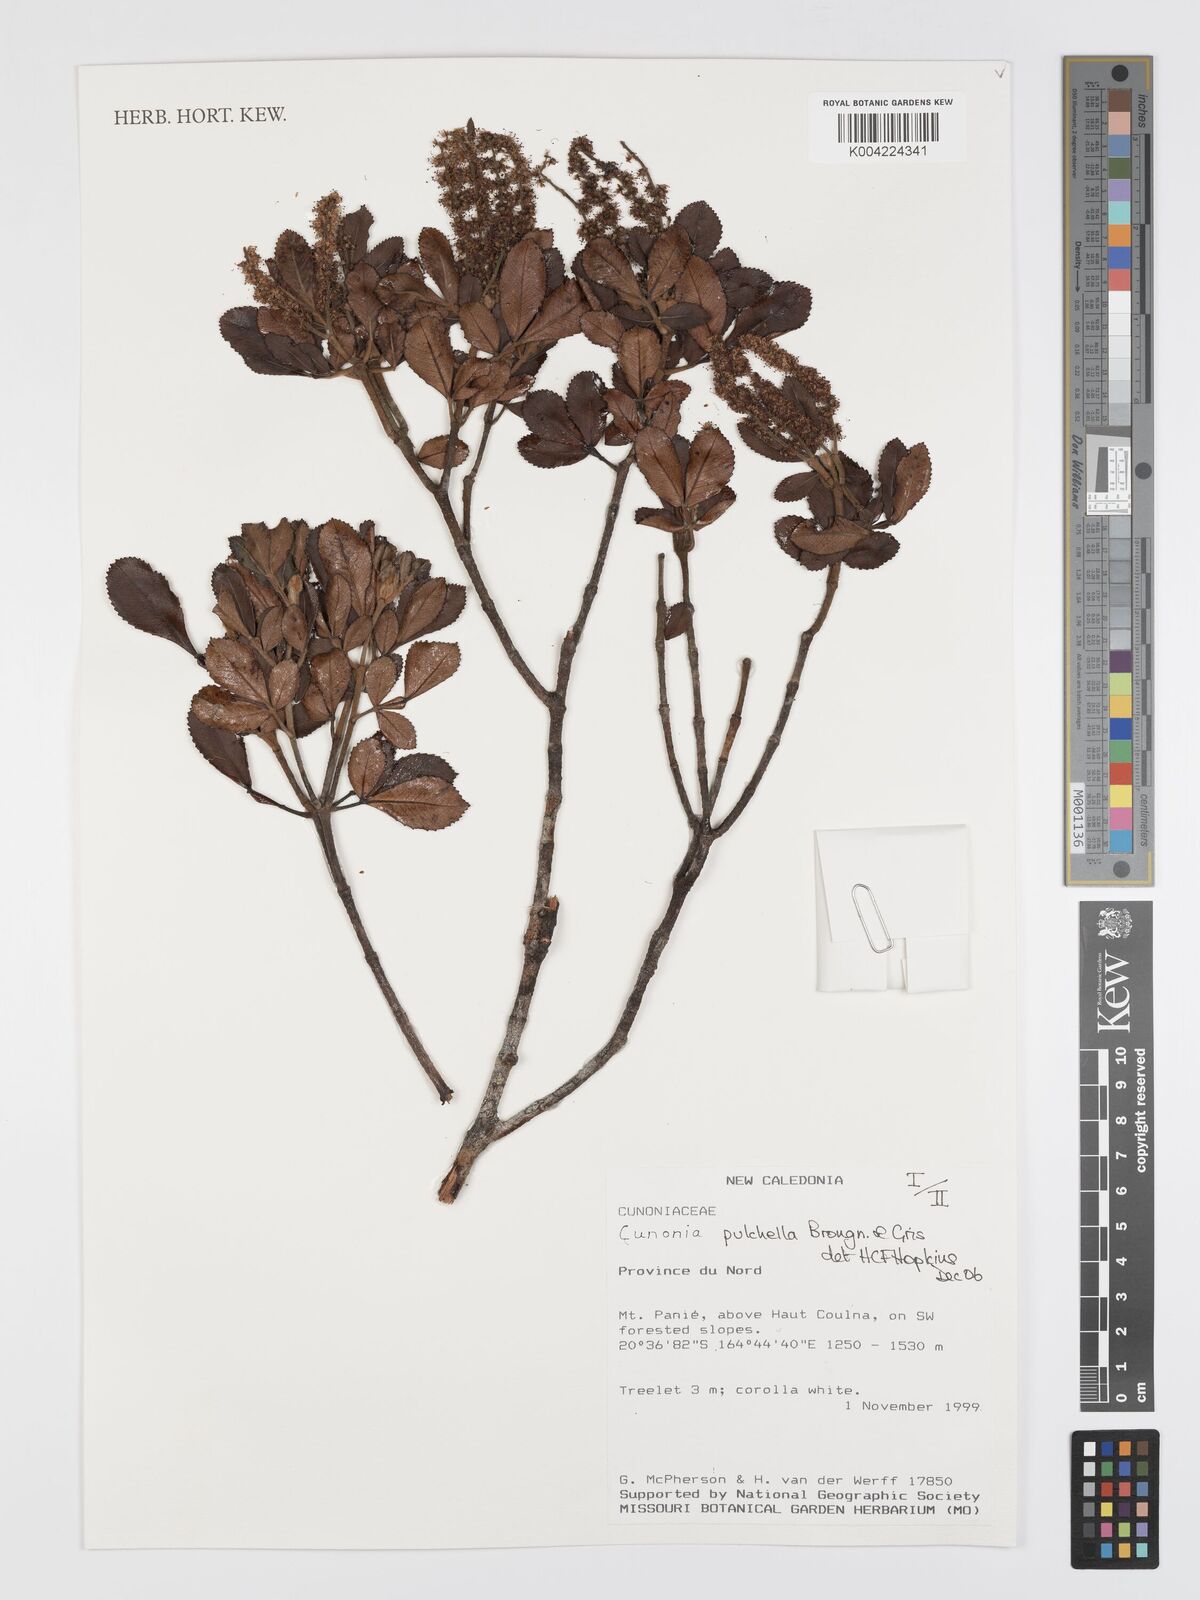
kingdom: Plantae
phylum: Tracheophyta
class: Magnoliopsida
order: Oxalidales
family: Cunoniaceae
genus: Cunonia
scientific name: Cunonia pulchella
